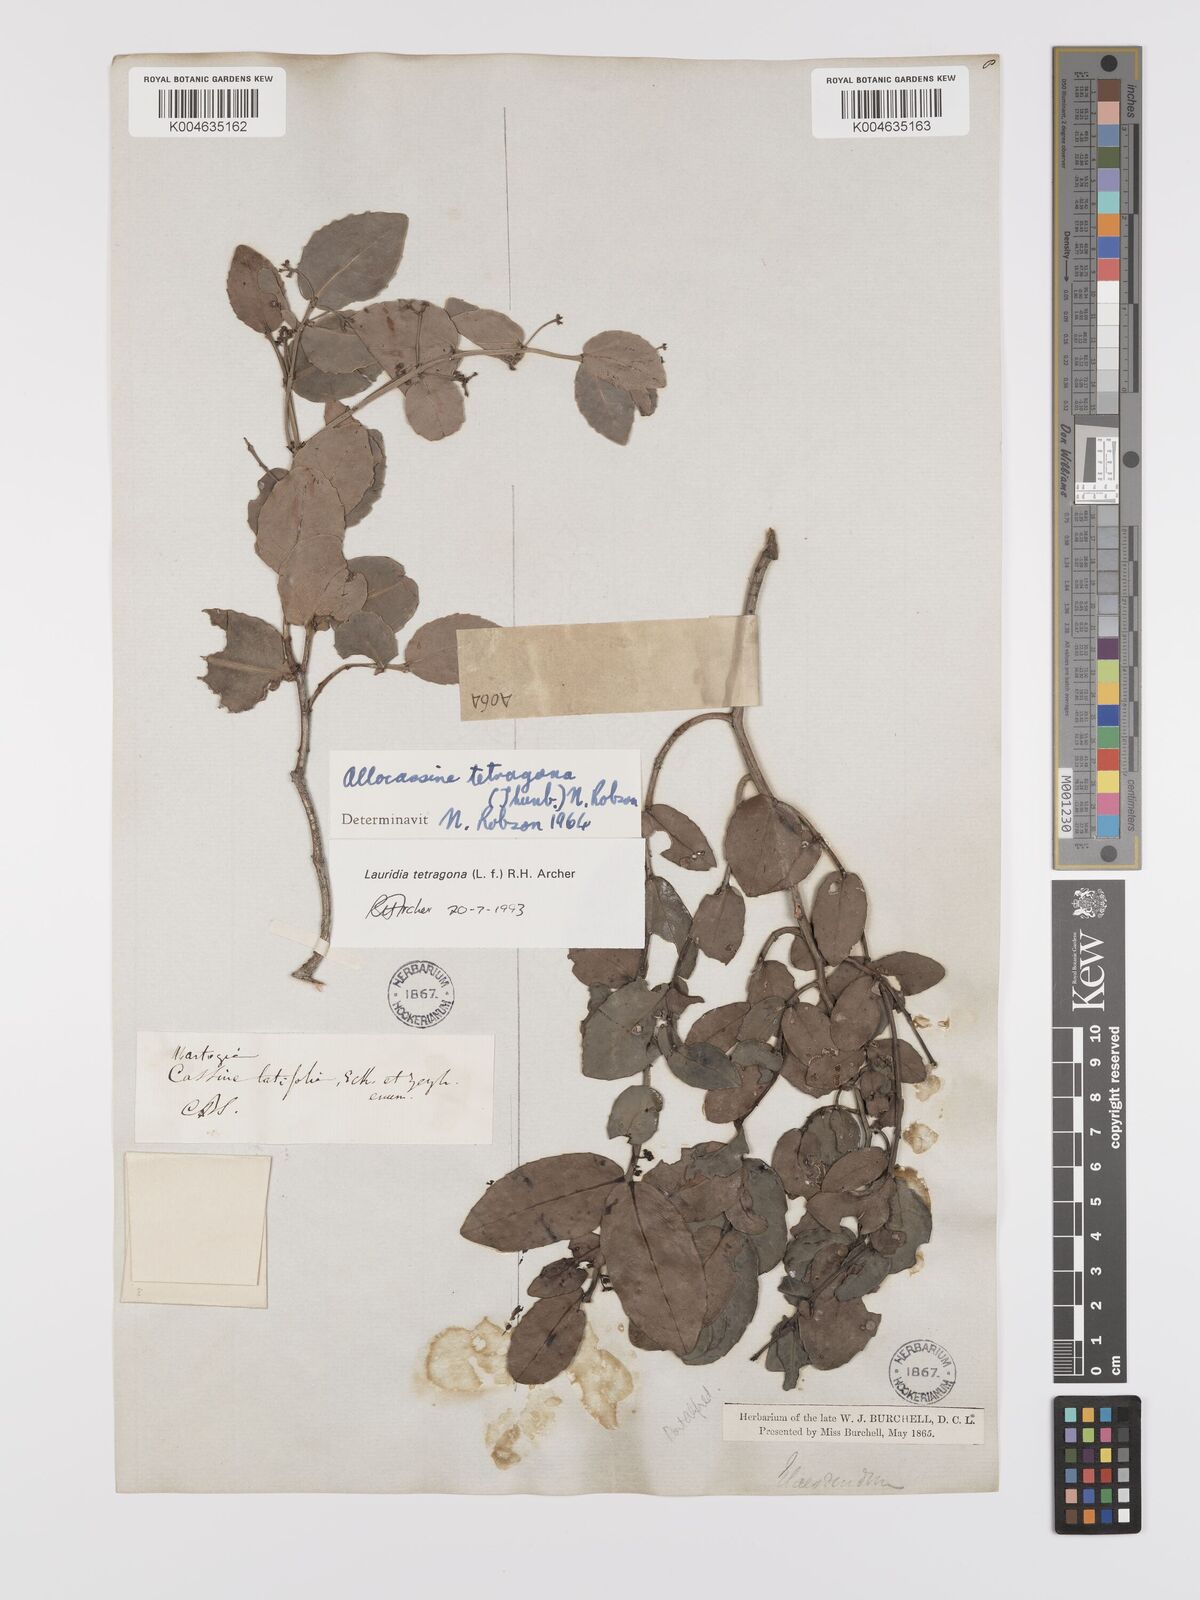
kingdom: Plantae
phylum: Tracheophyta
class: Magnoliopsida
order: Celastrales
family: Celastraceae
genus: Lauridia
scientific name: Lauridia tetragona
